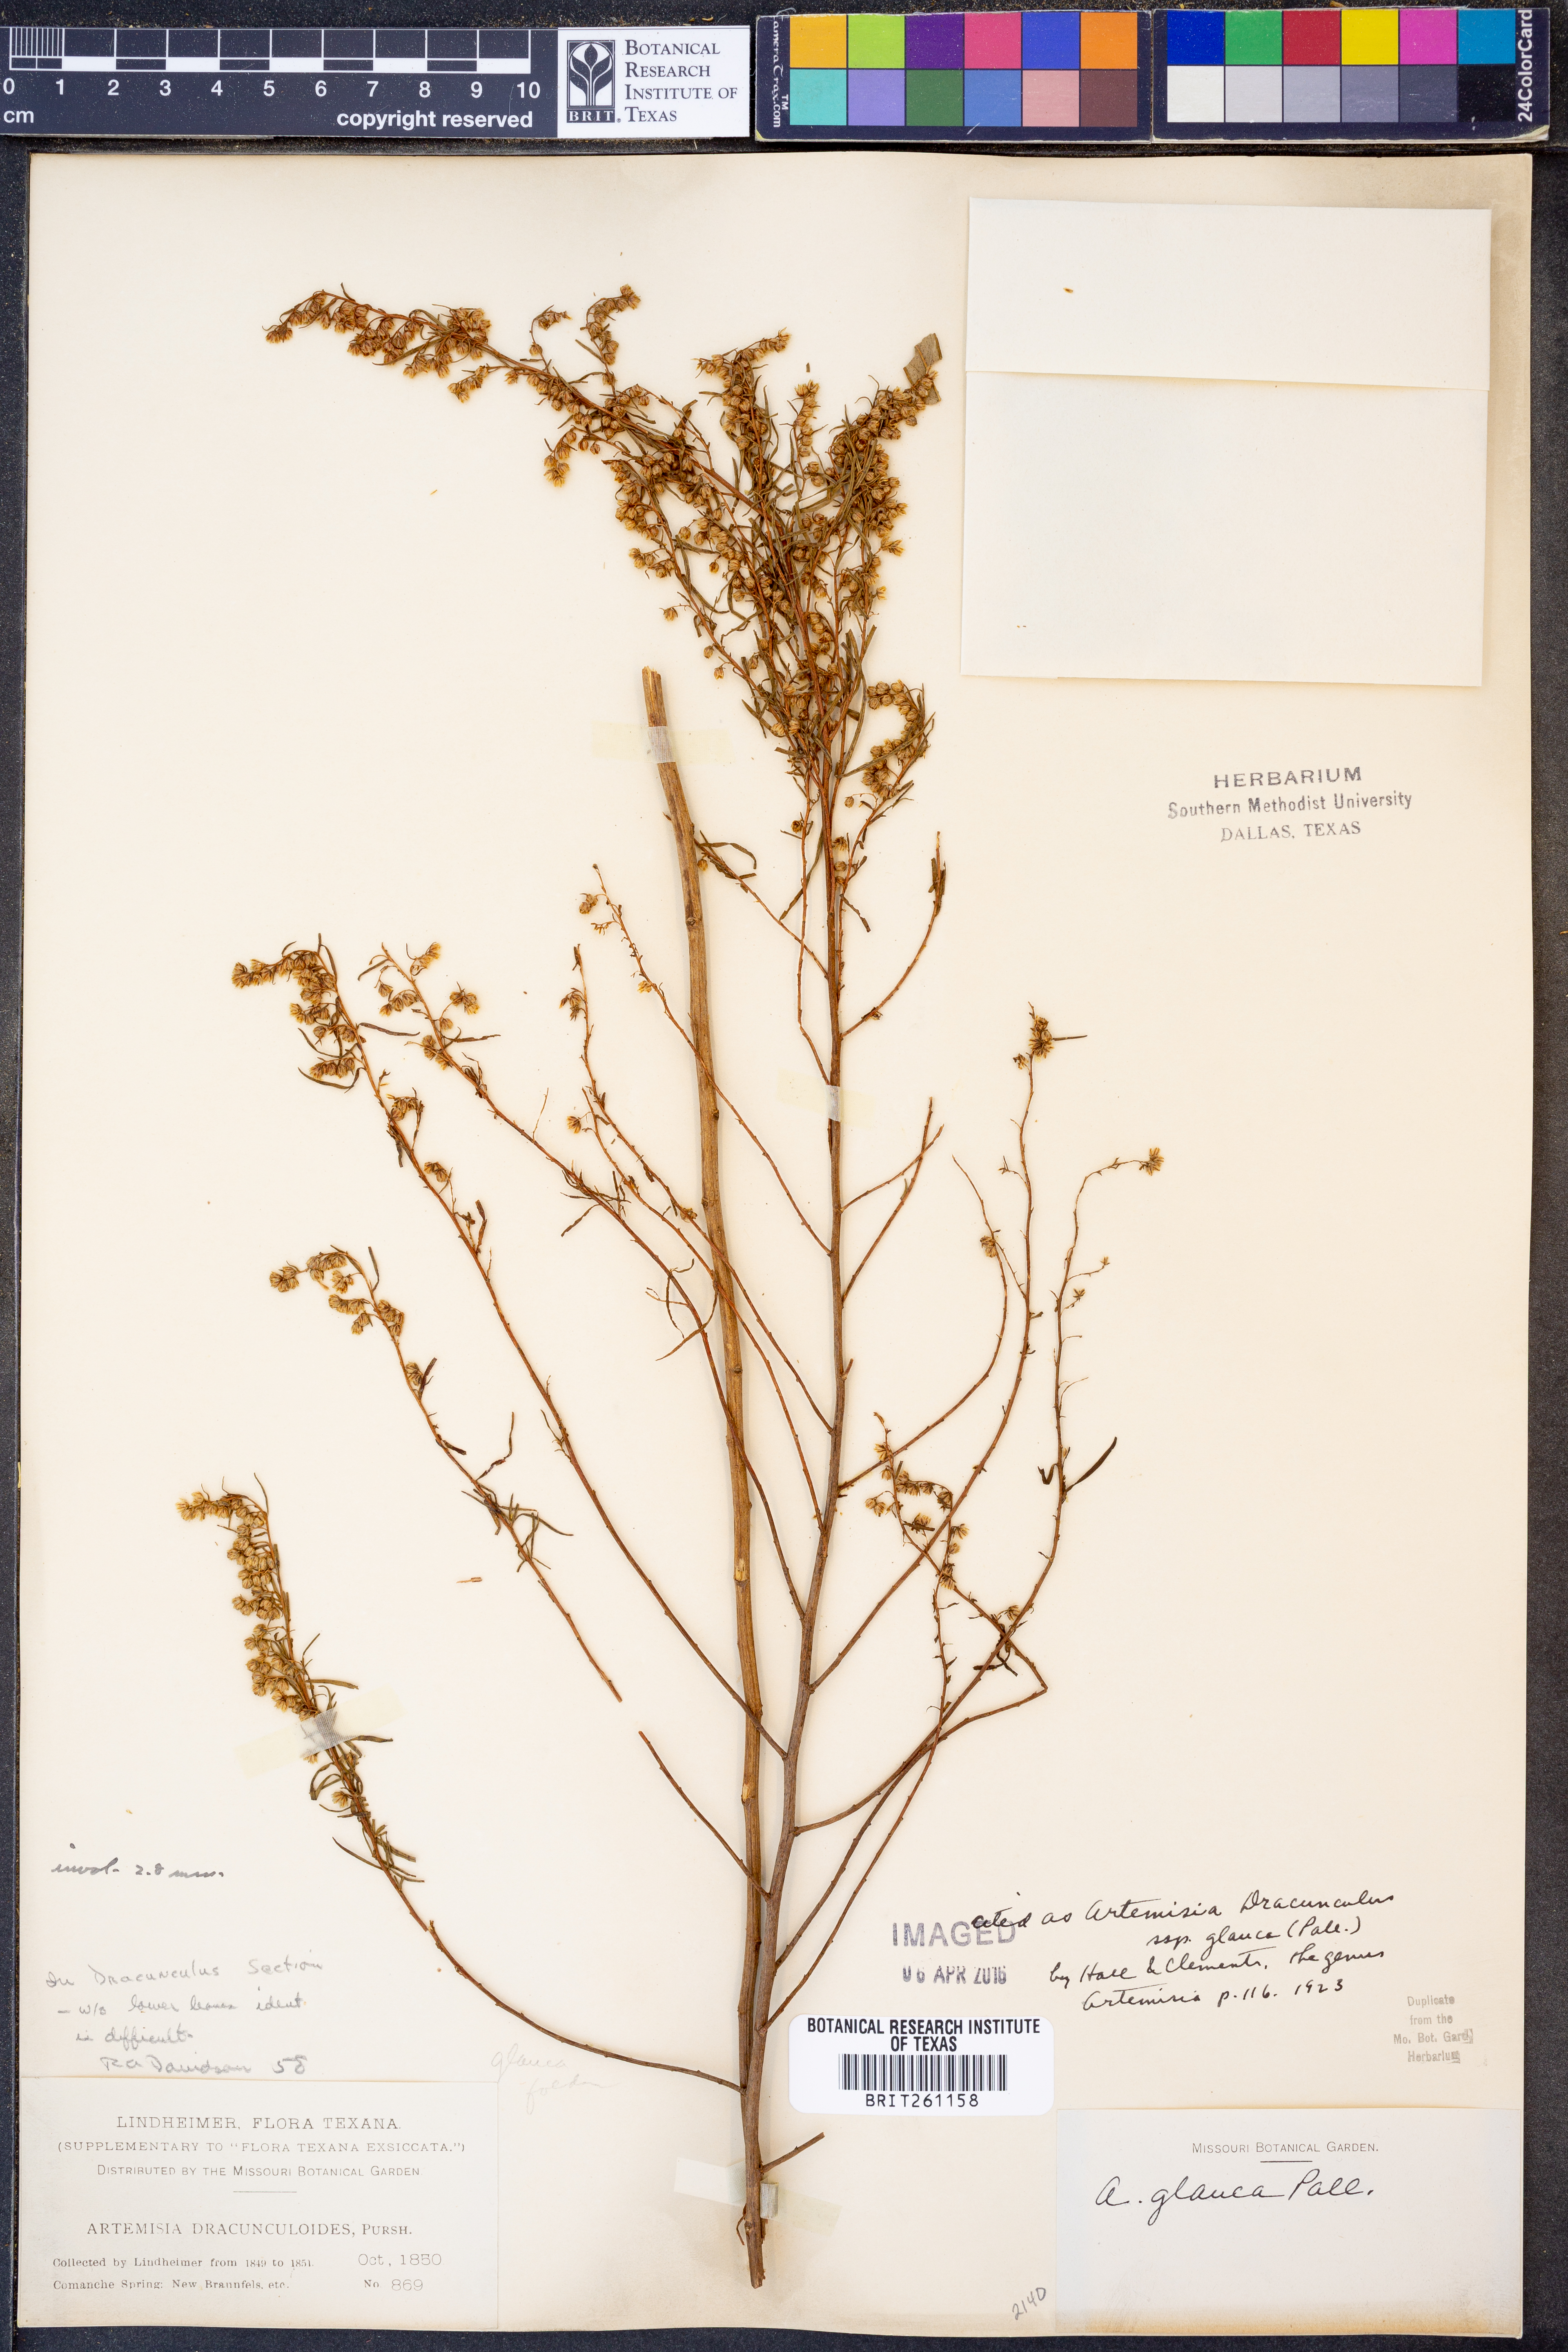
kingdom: Plantae
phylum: Tracheophyta
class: Magnoliopsida
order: Asterales
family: Asteraceae
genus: Artemisia
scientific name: Artemisia glauca
